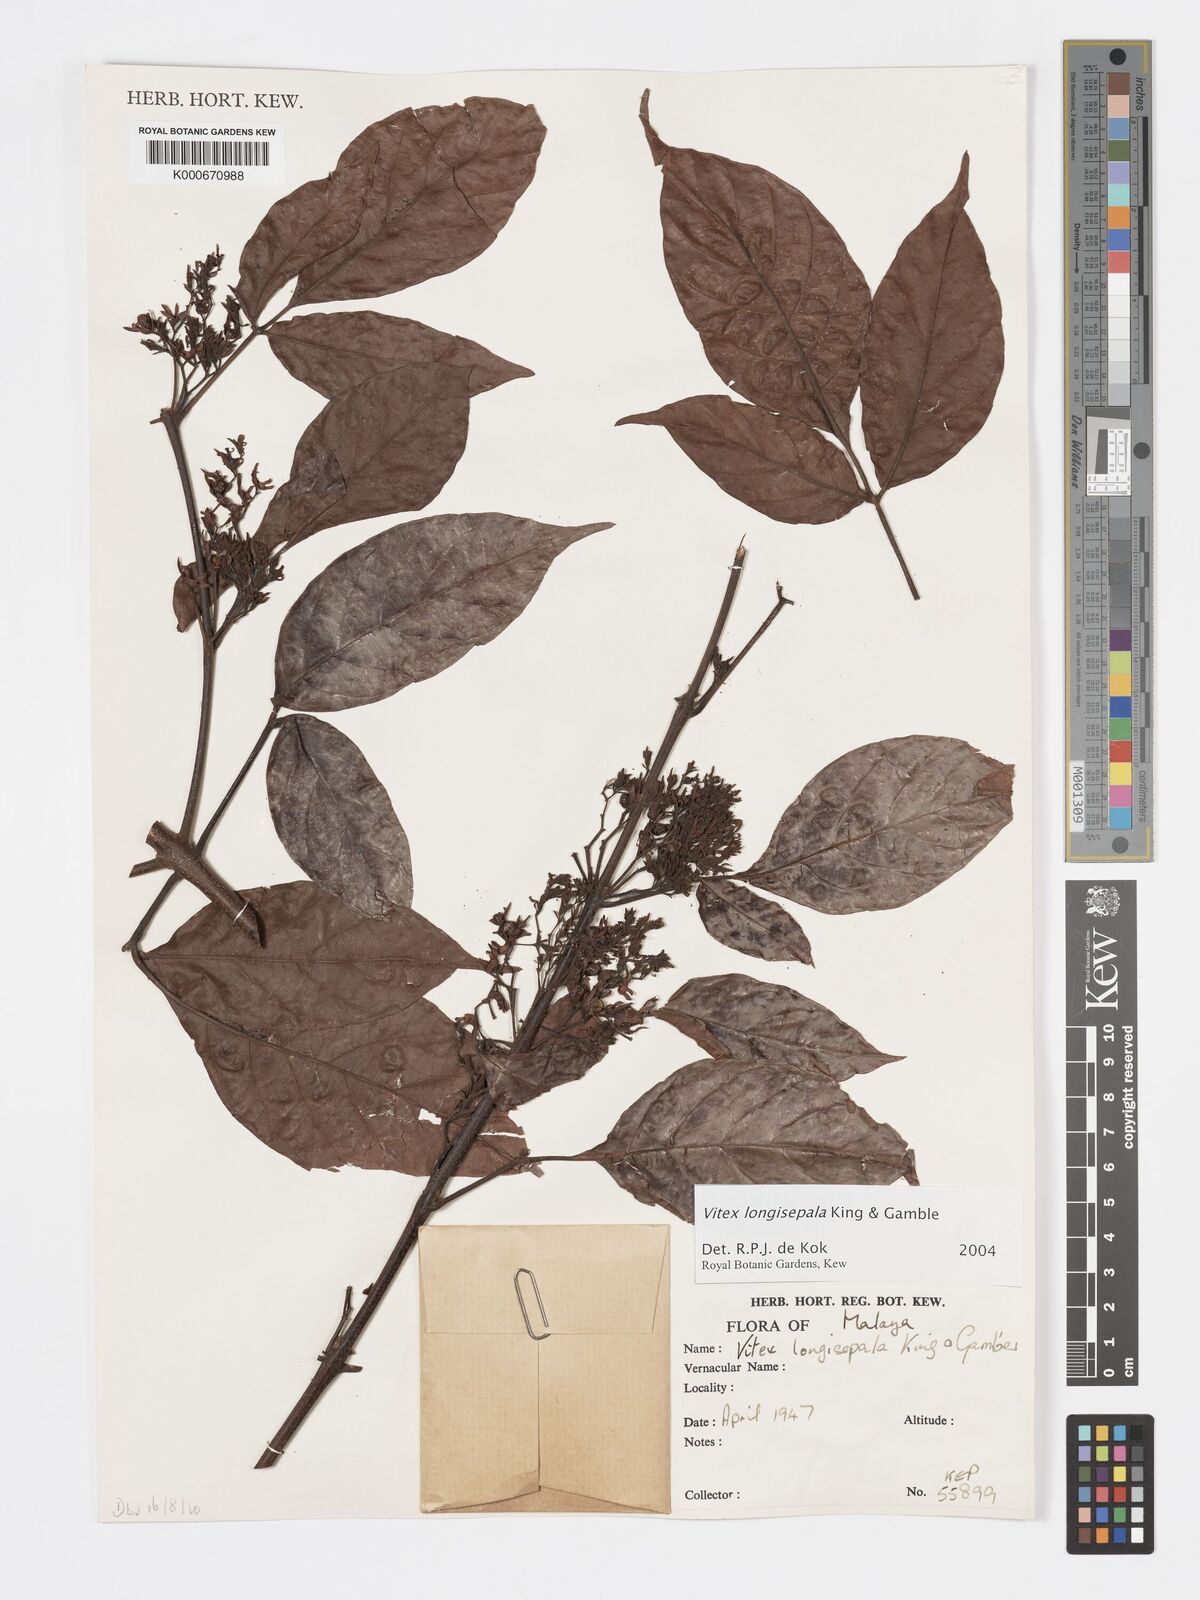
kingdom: Plantae
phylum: Tracheophyta
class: Magnoliopsida
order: Lamiales
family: Lamiaceae
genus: Vitex
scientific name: Vitex longisepala
